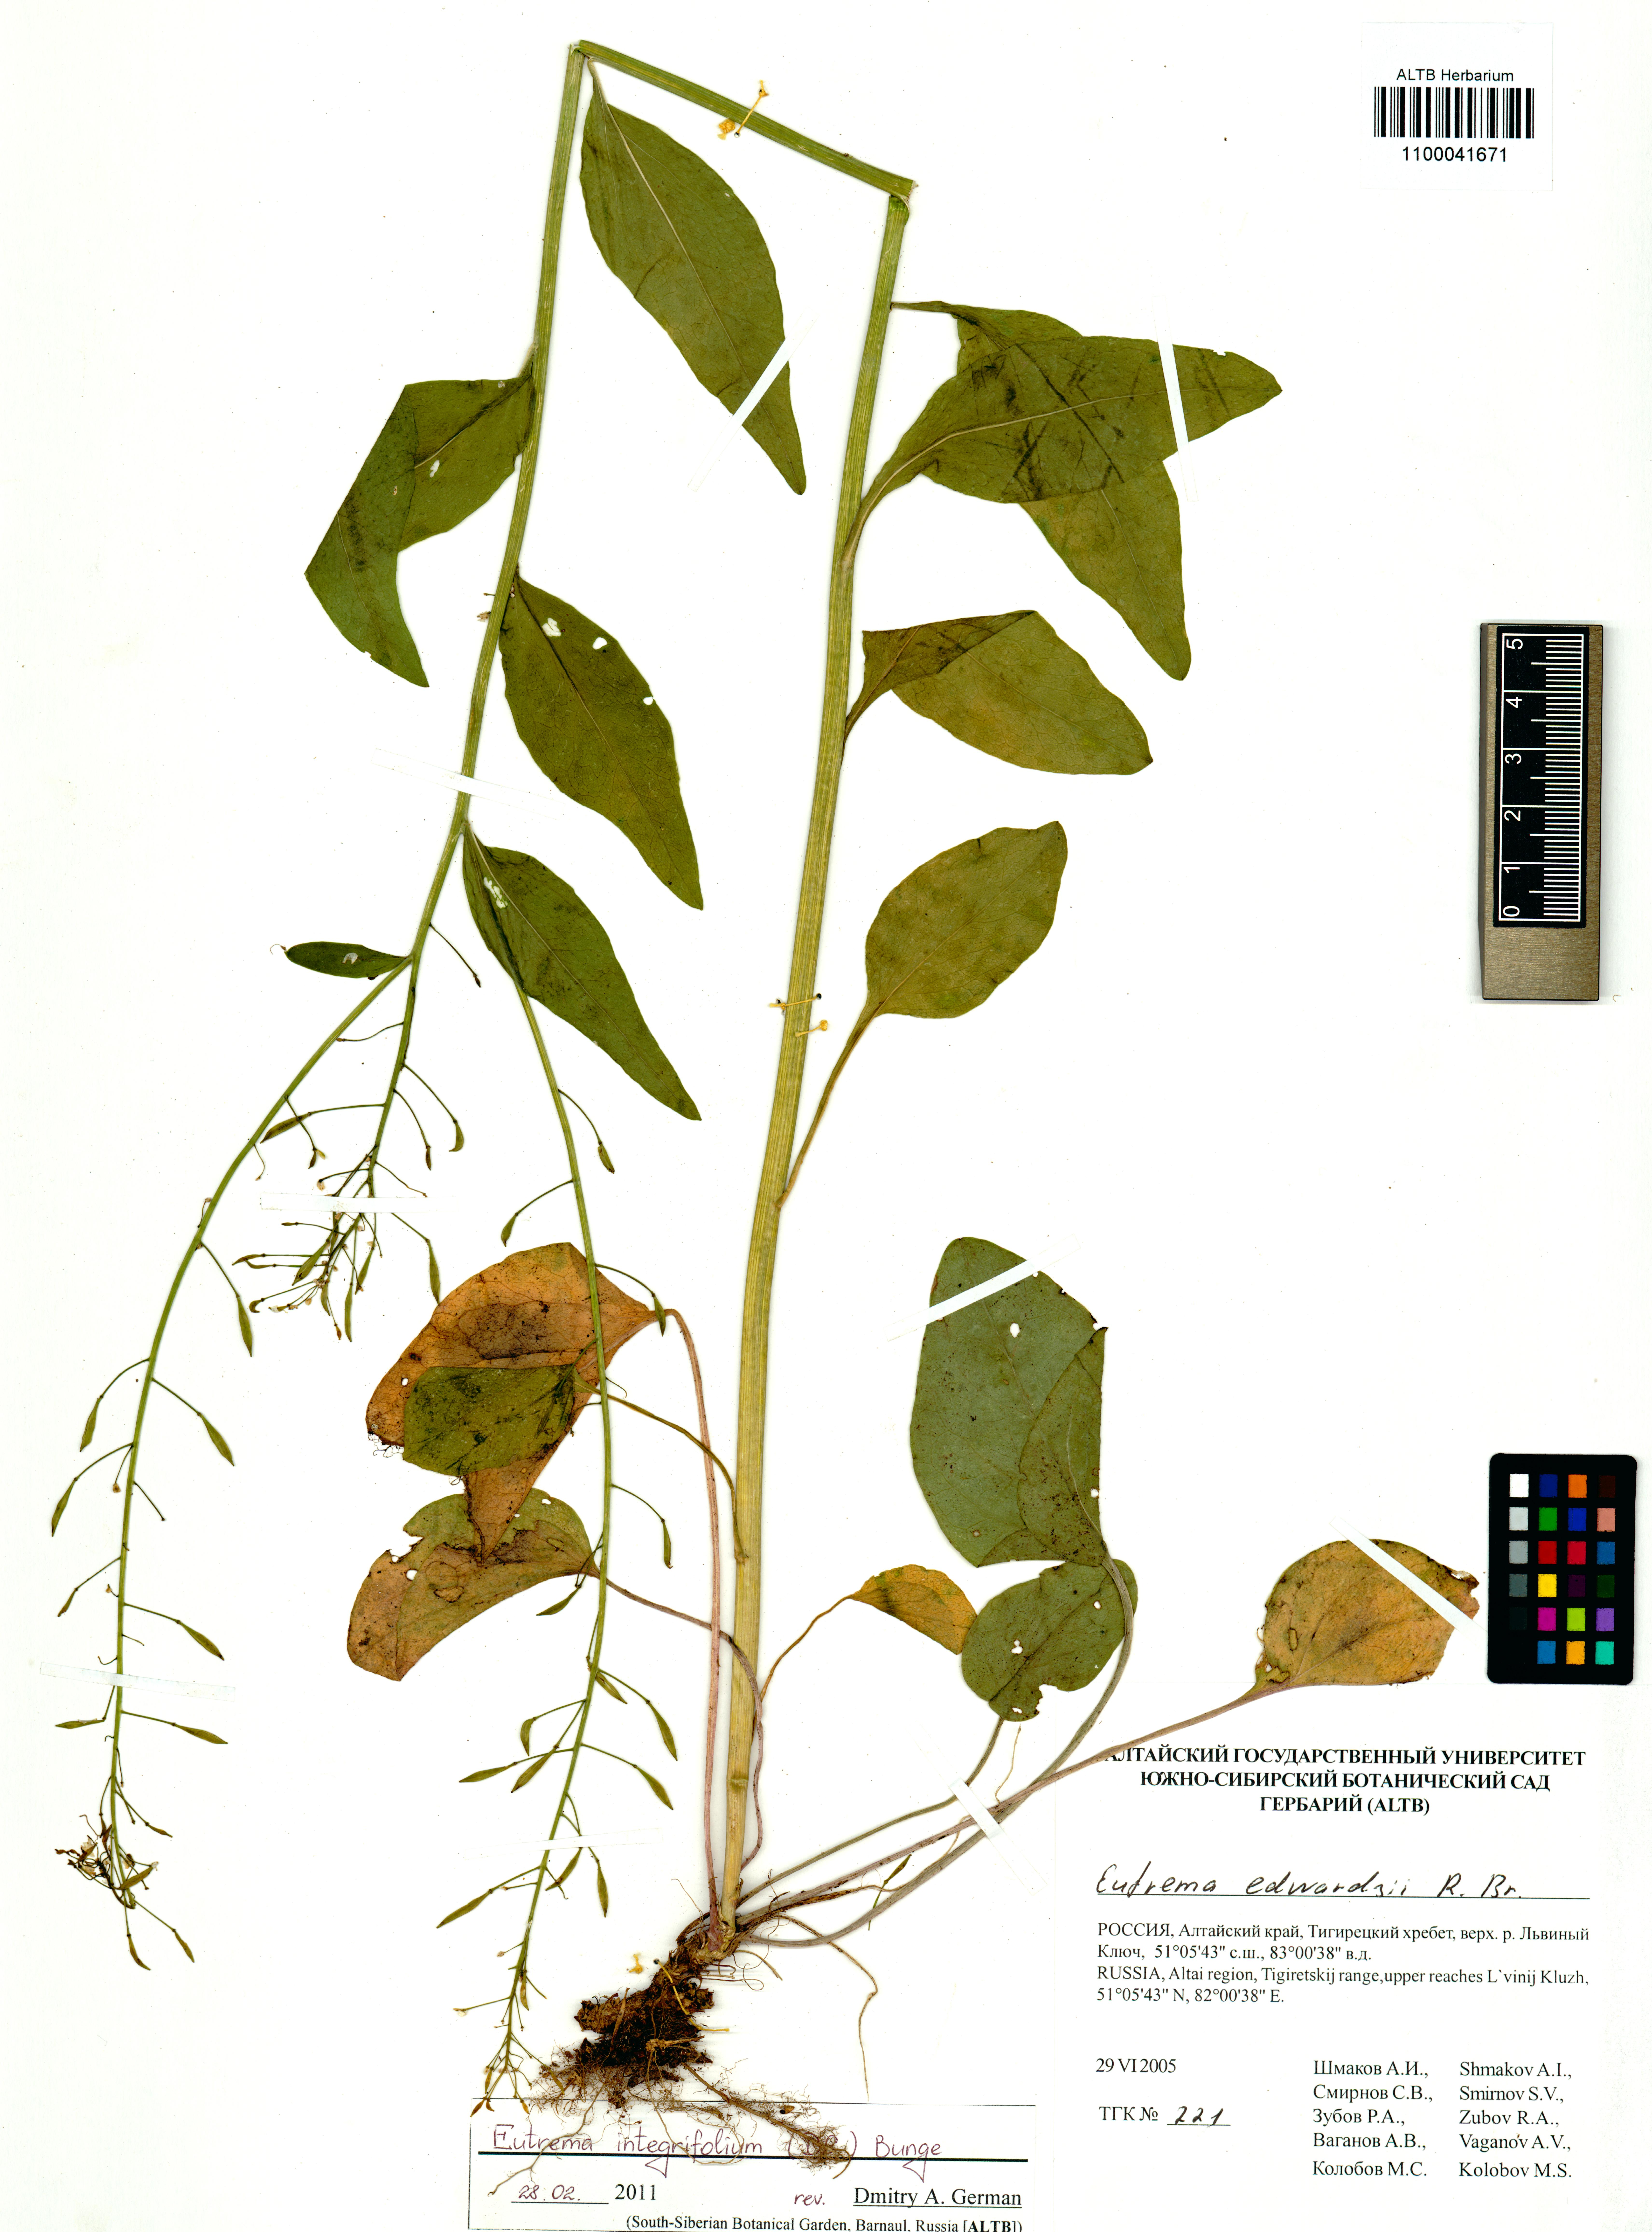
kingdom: Plantae
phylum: Tracheophyta
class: Magnoliopsida
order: Brassicales
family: Brassicaceae
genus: Eutrema
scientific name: Eutrema integrifolium
